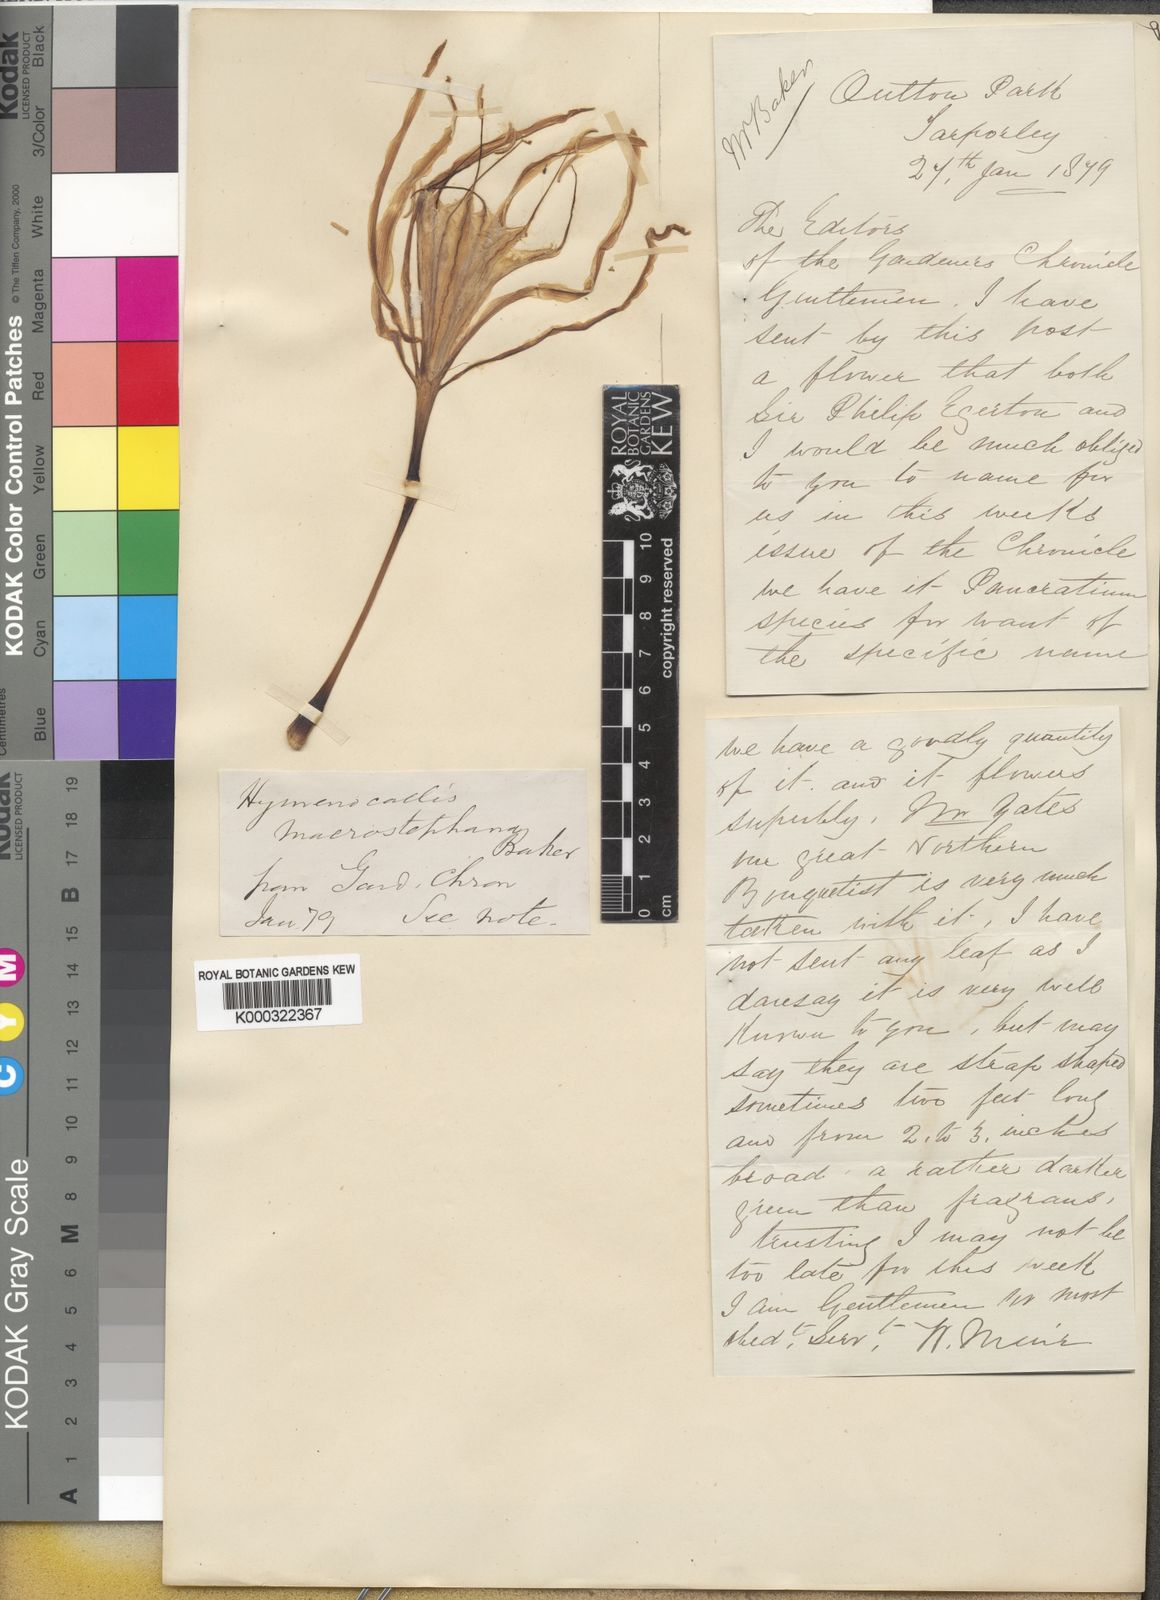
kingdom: Plantae
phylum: Tracheophyta
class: Liliopsida
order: Asparagales
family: Amaryllidaceae
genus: Hymenocallis
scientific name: Hymenocallis macrostephana
